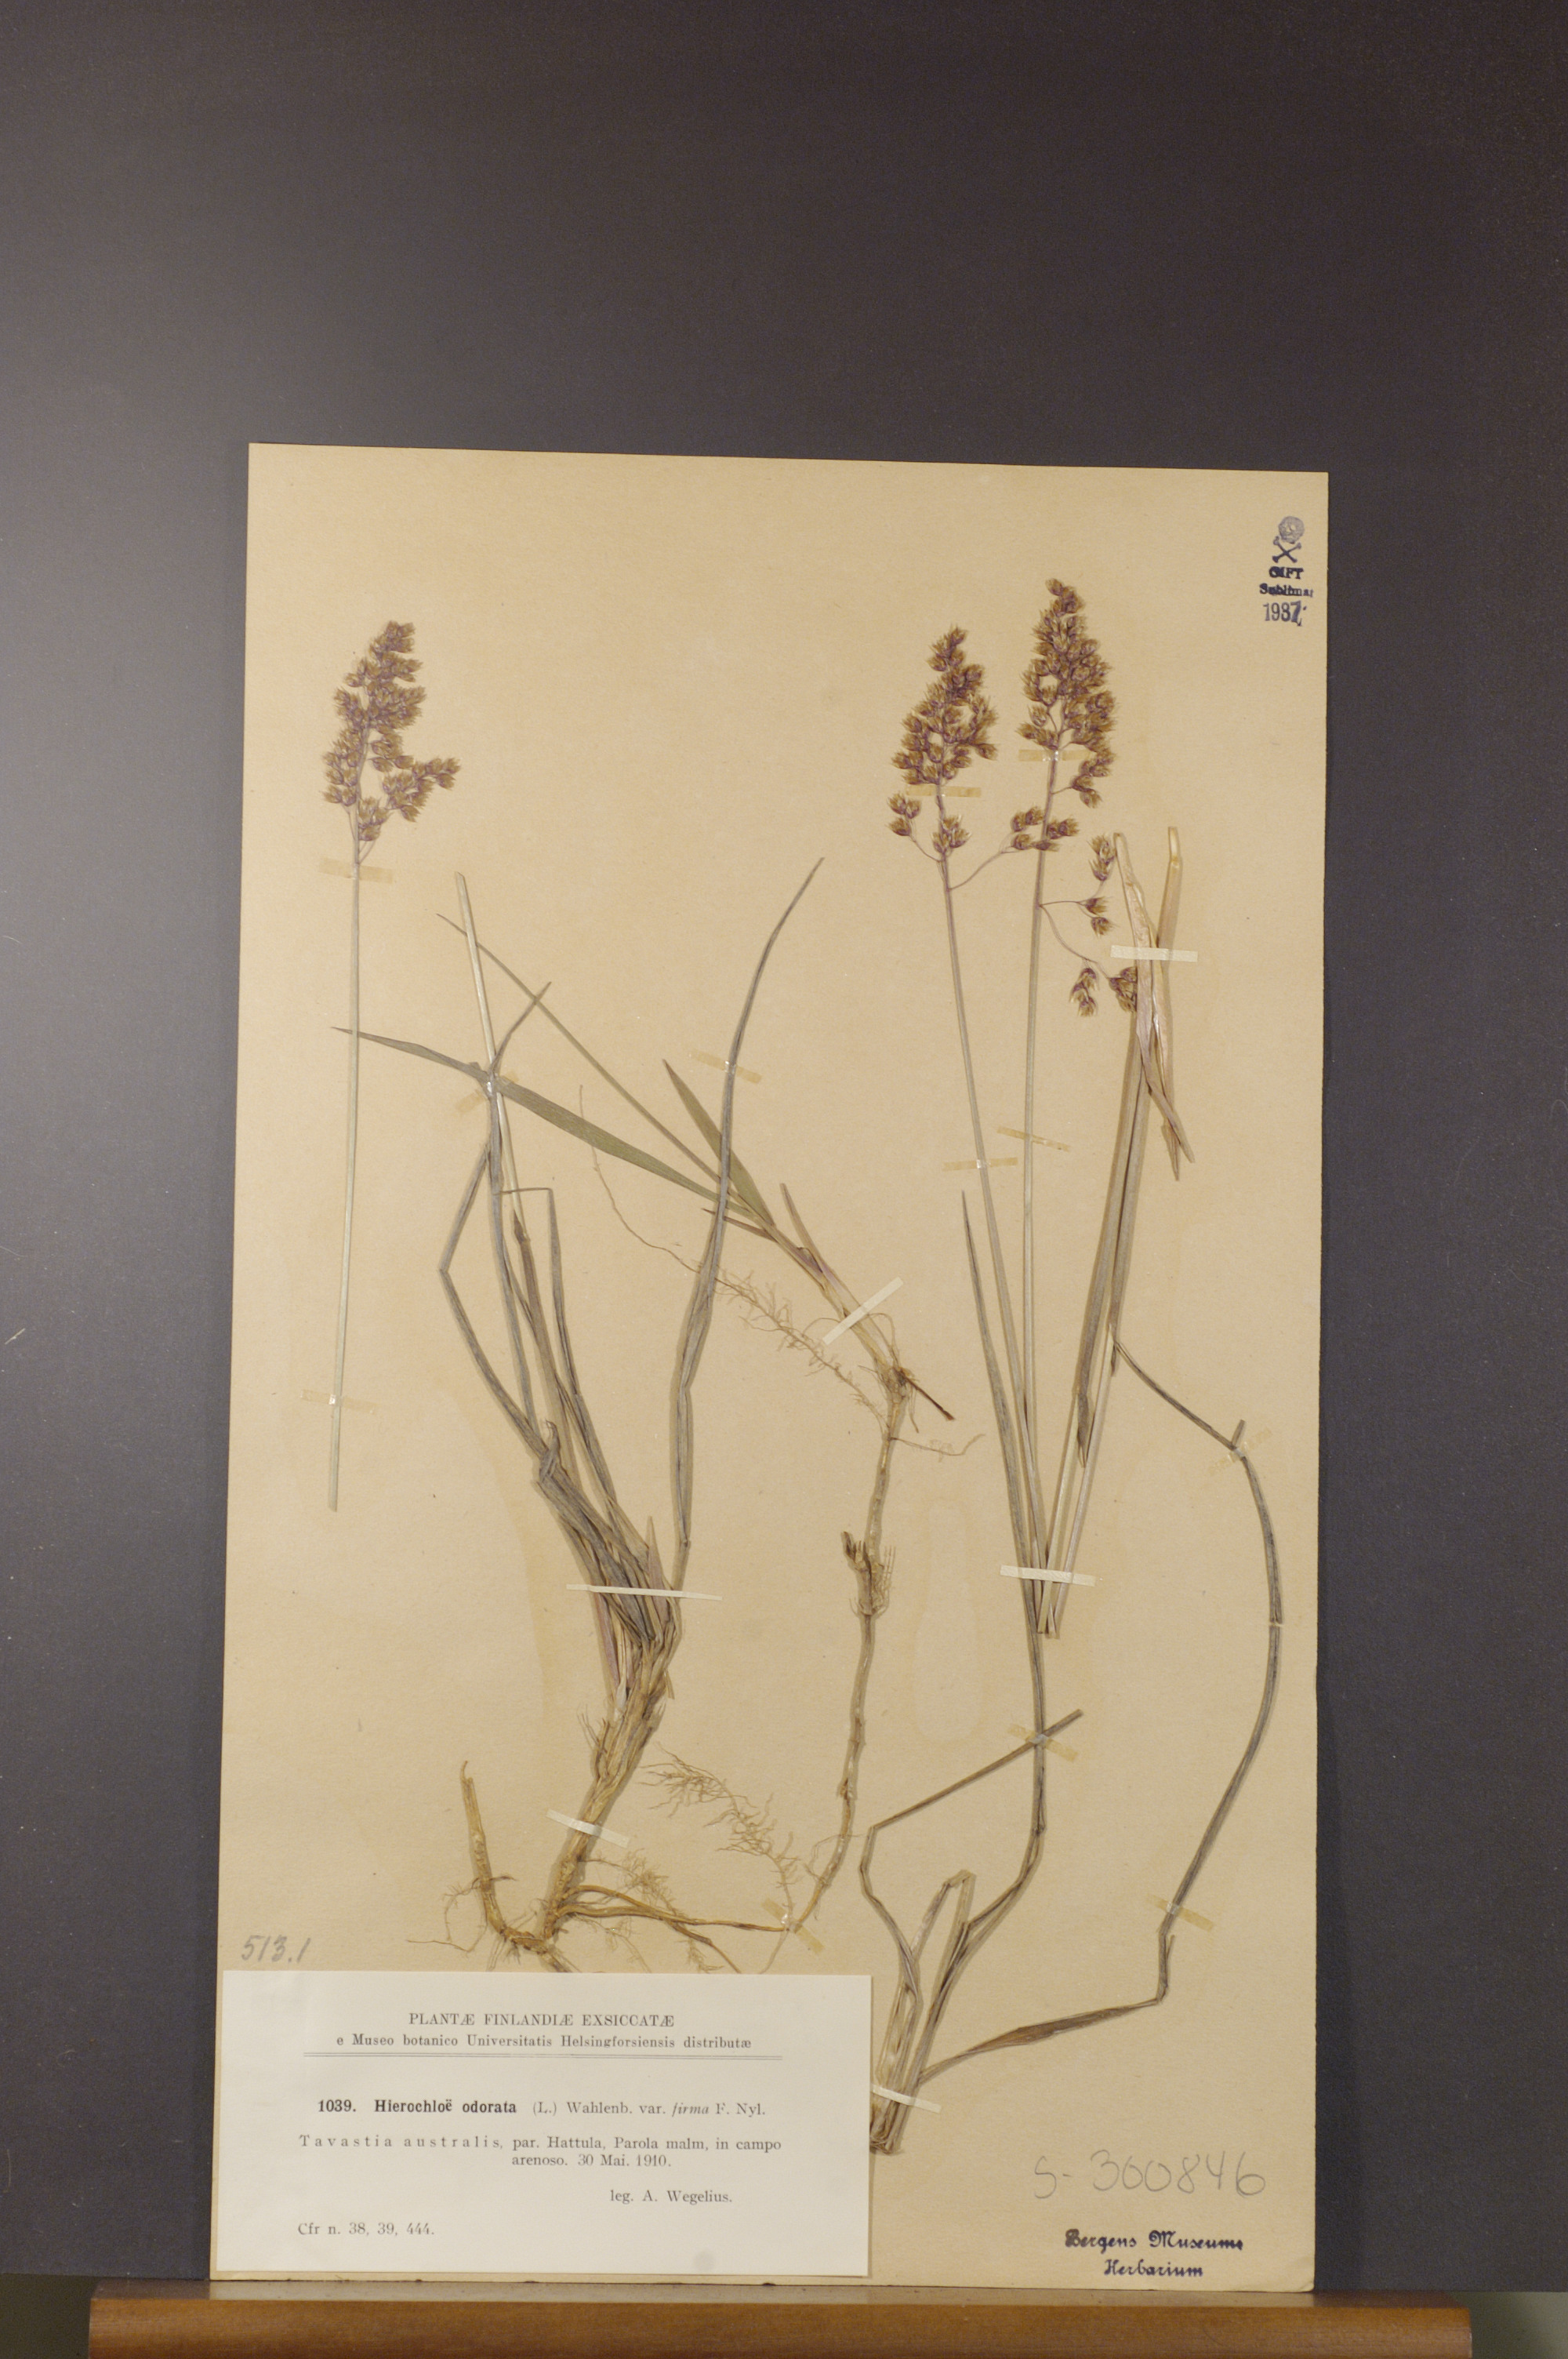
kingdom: Plantae
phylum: Tracheophyta
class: Liliopsida
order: Poales
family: Poaceae
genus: Anthoxanthum
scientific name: Anthoxanthum nitens
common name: Holy grass
